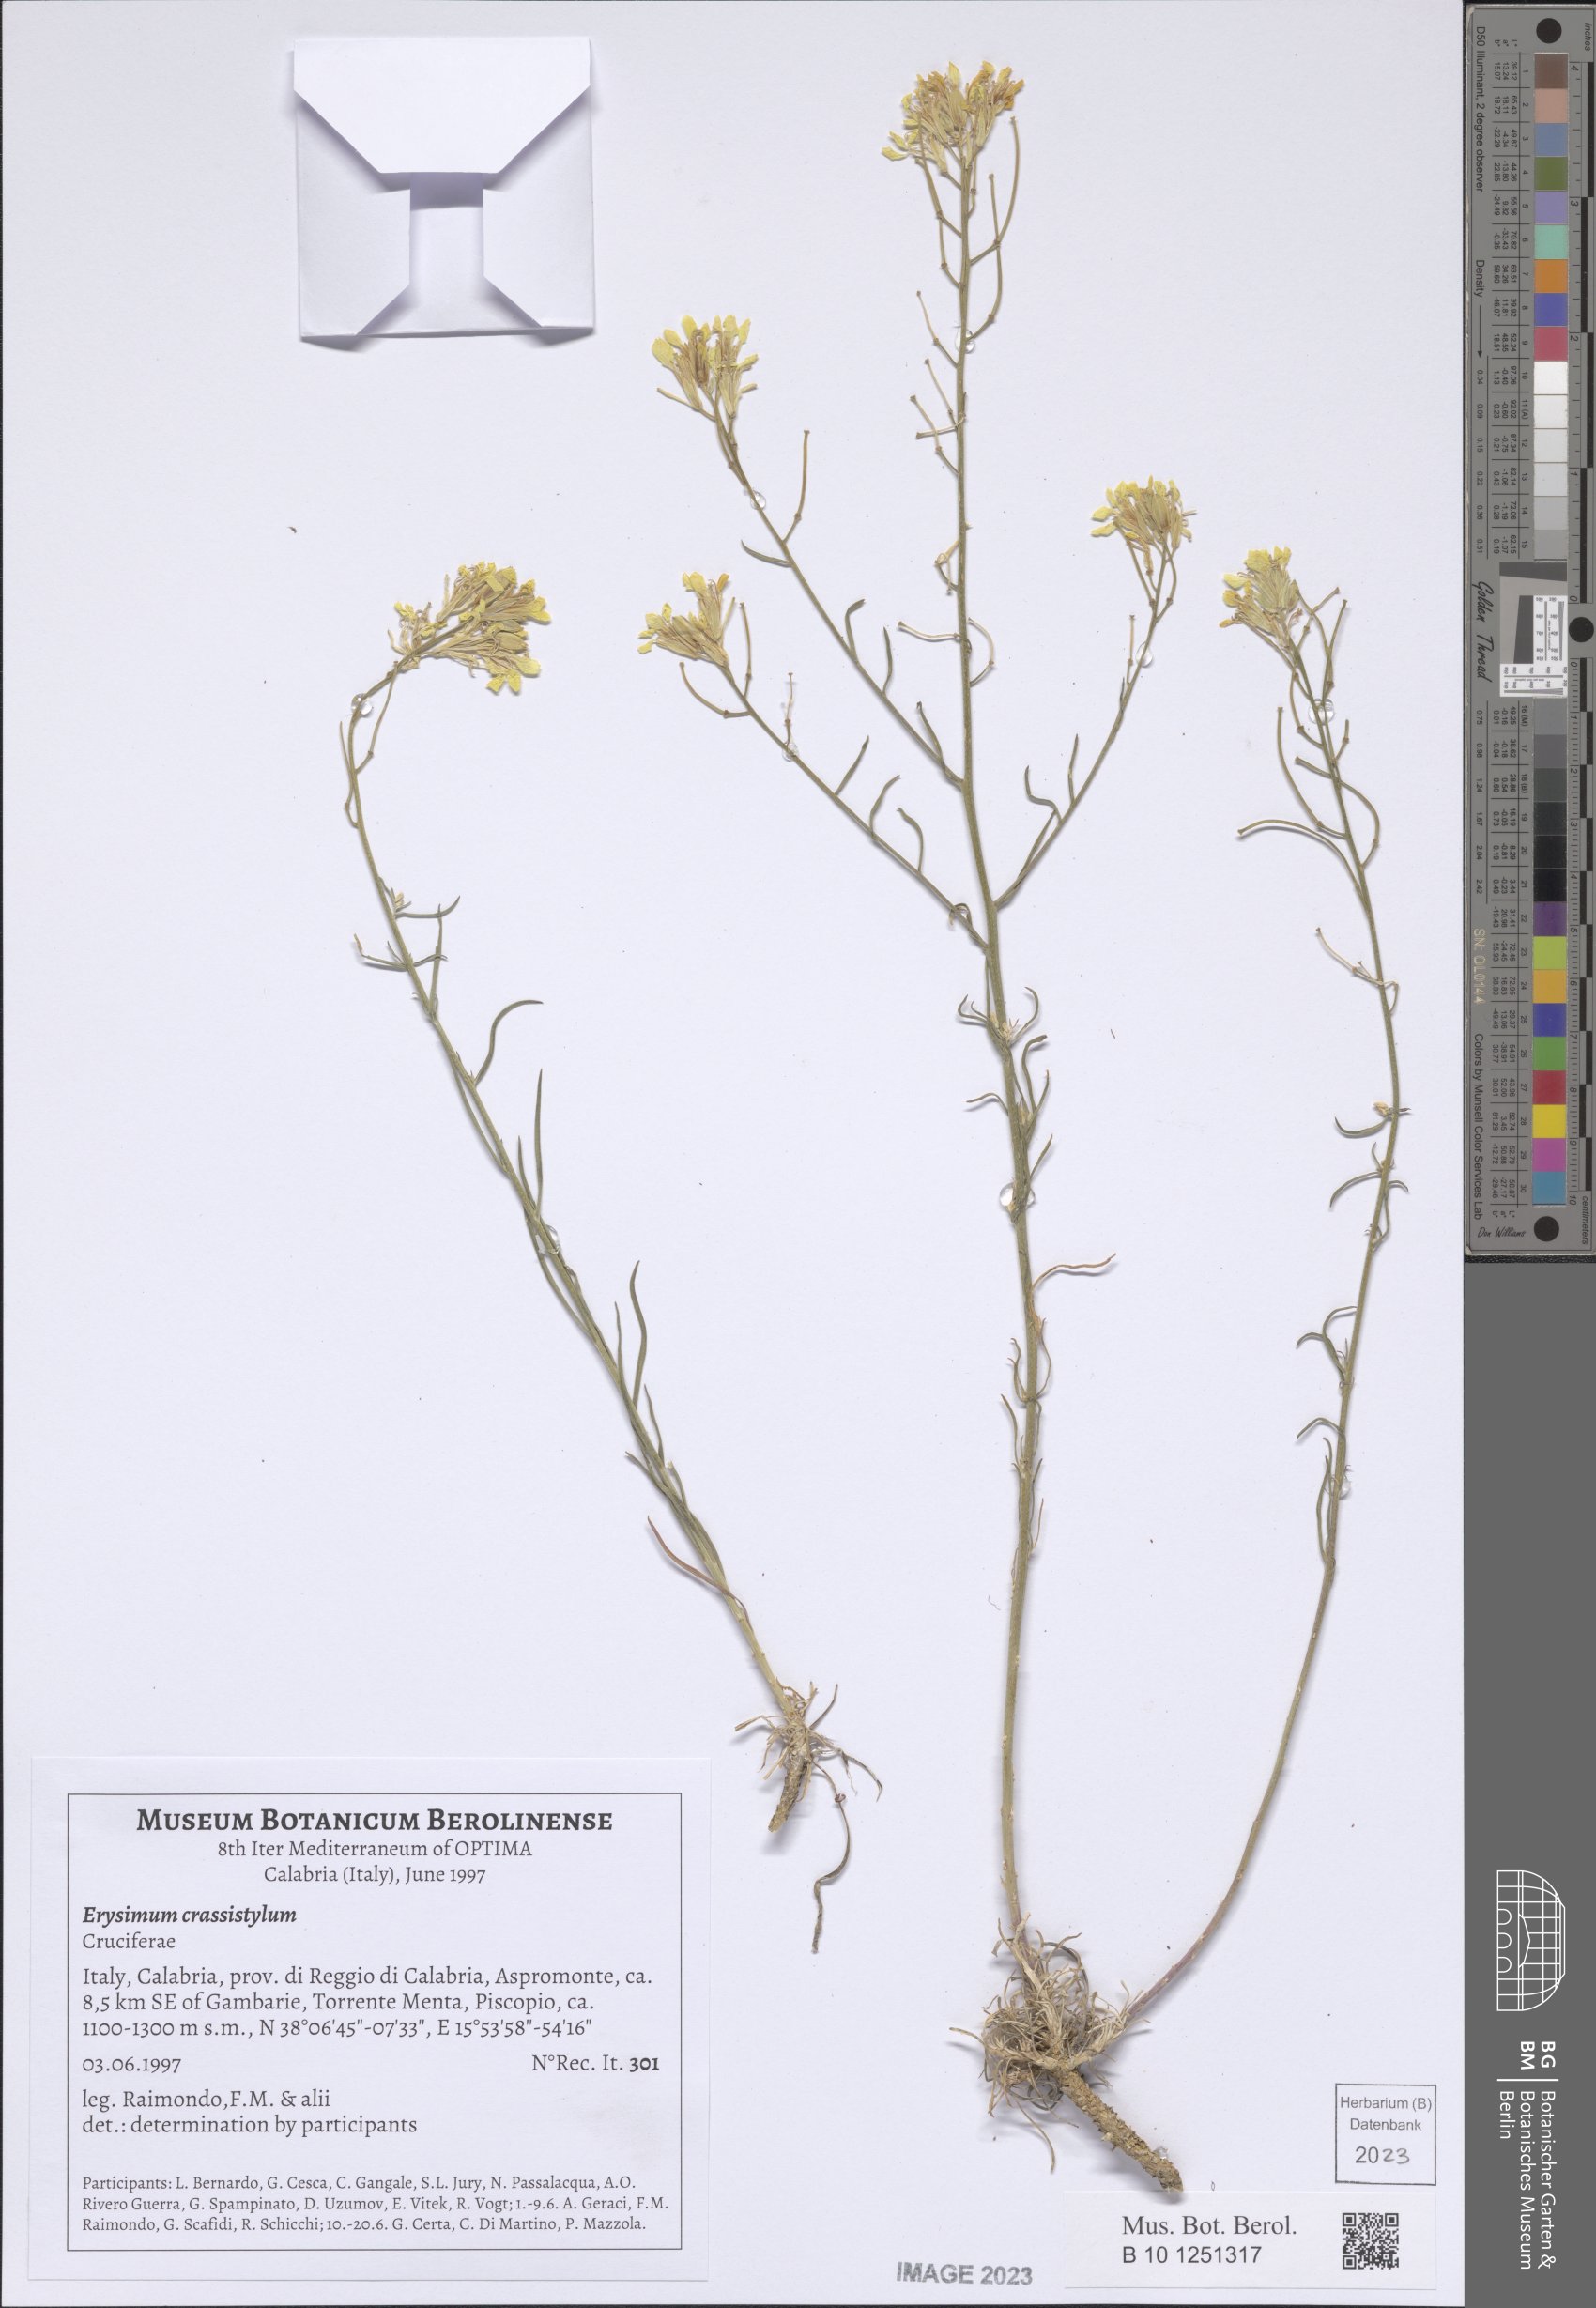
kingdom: Plantae
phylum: Tracheophyta
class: Magnoliopsida
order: Brassicales
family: Brassicaceae
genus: Erysimum
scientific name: Erysimum crassistylum
